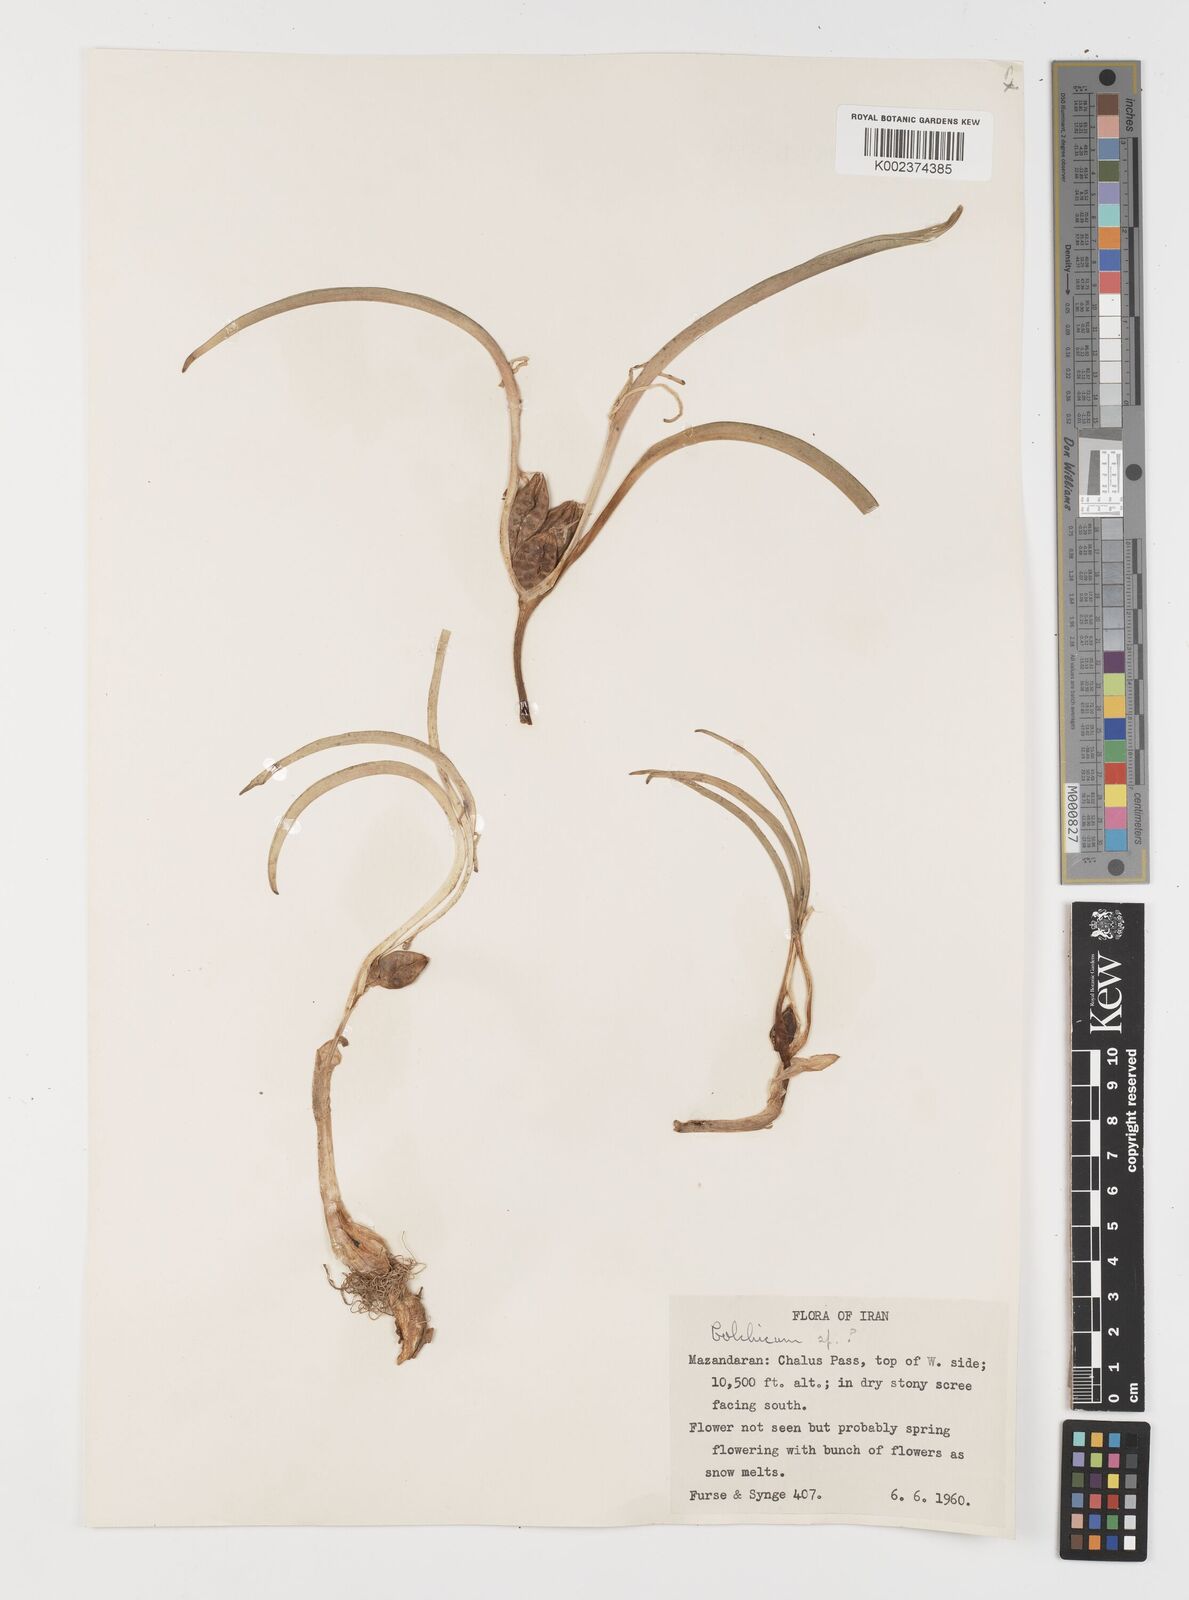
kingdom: Plantae
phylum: Tracheophyta
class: Liliopsida
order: Liliales
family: Colchicaceae
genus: Colchicum
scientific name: Colchicum
